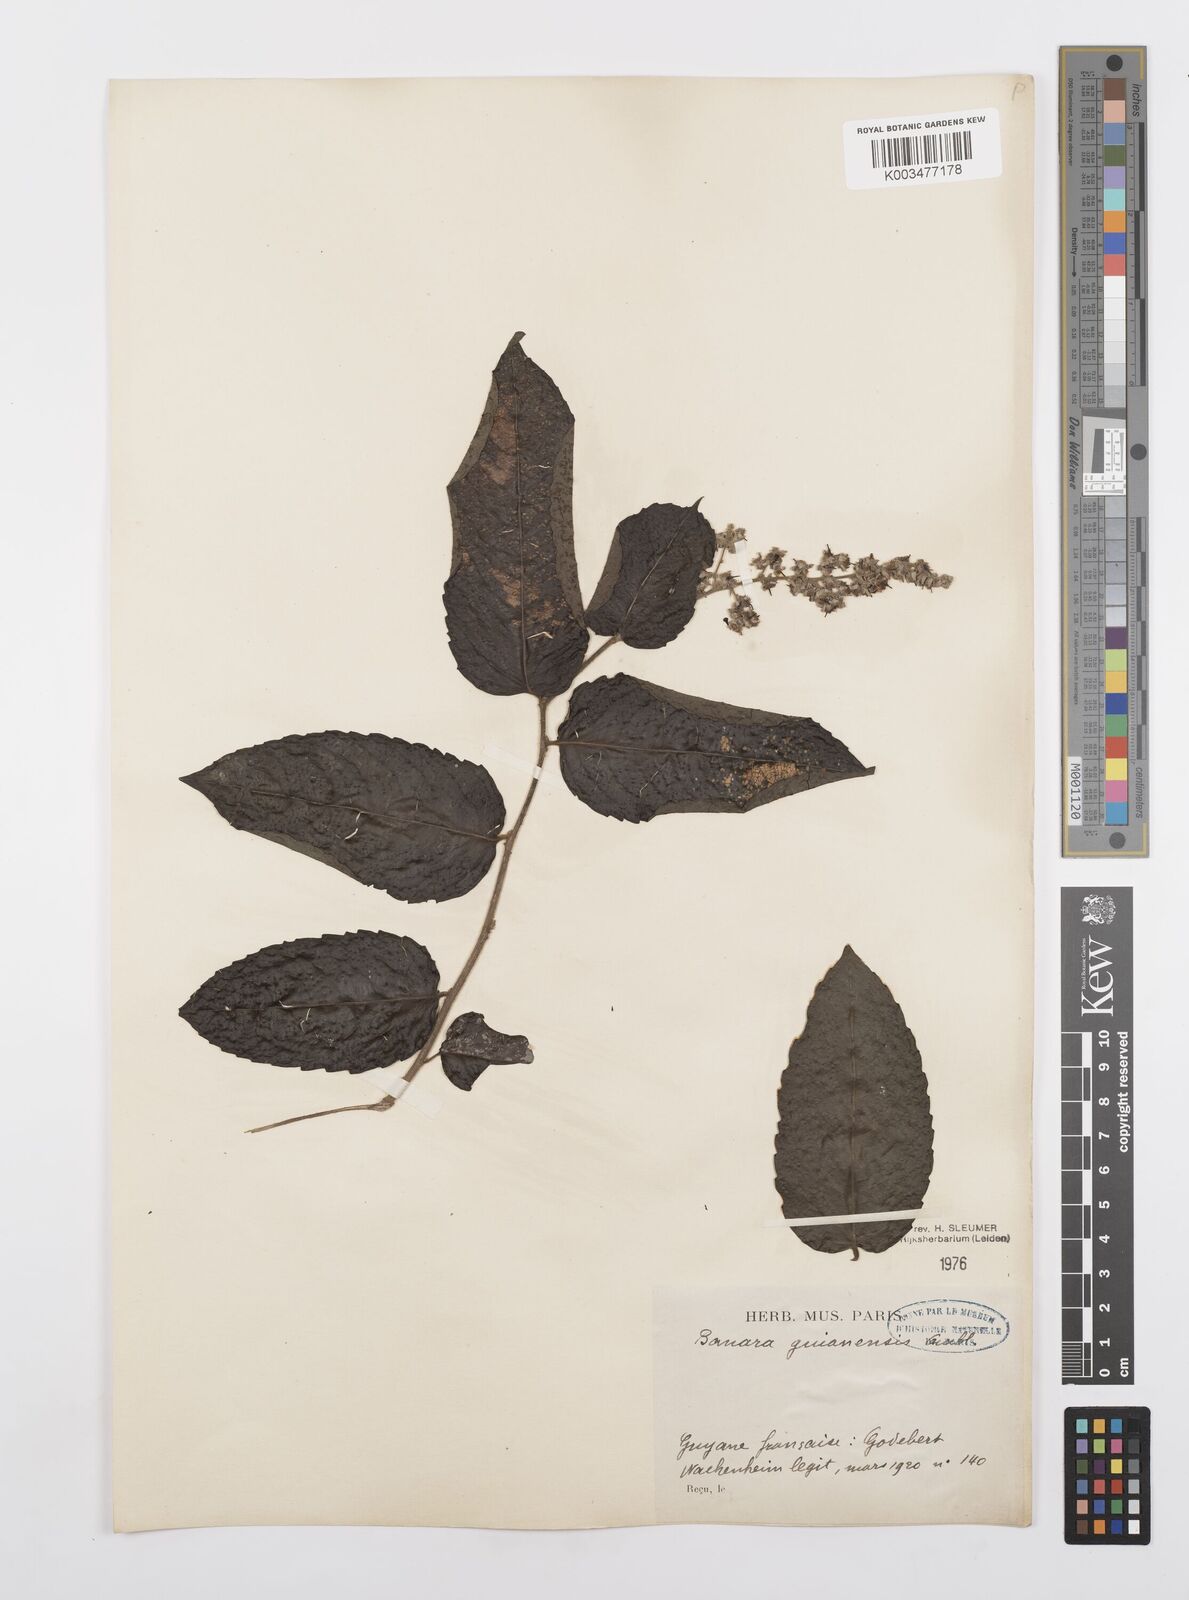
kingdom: Plantae
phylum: Tracheophyta
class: Magnoliopsida
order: Malpighiales
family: Salicaceae
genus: Banara
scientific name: Banara guianensis
